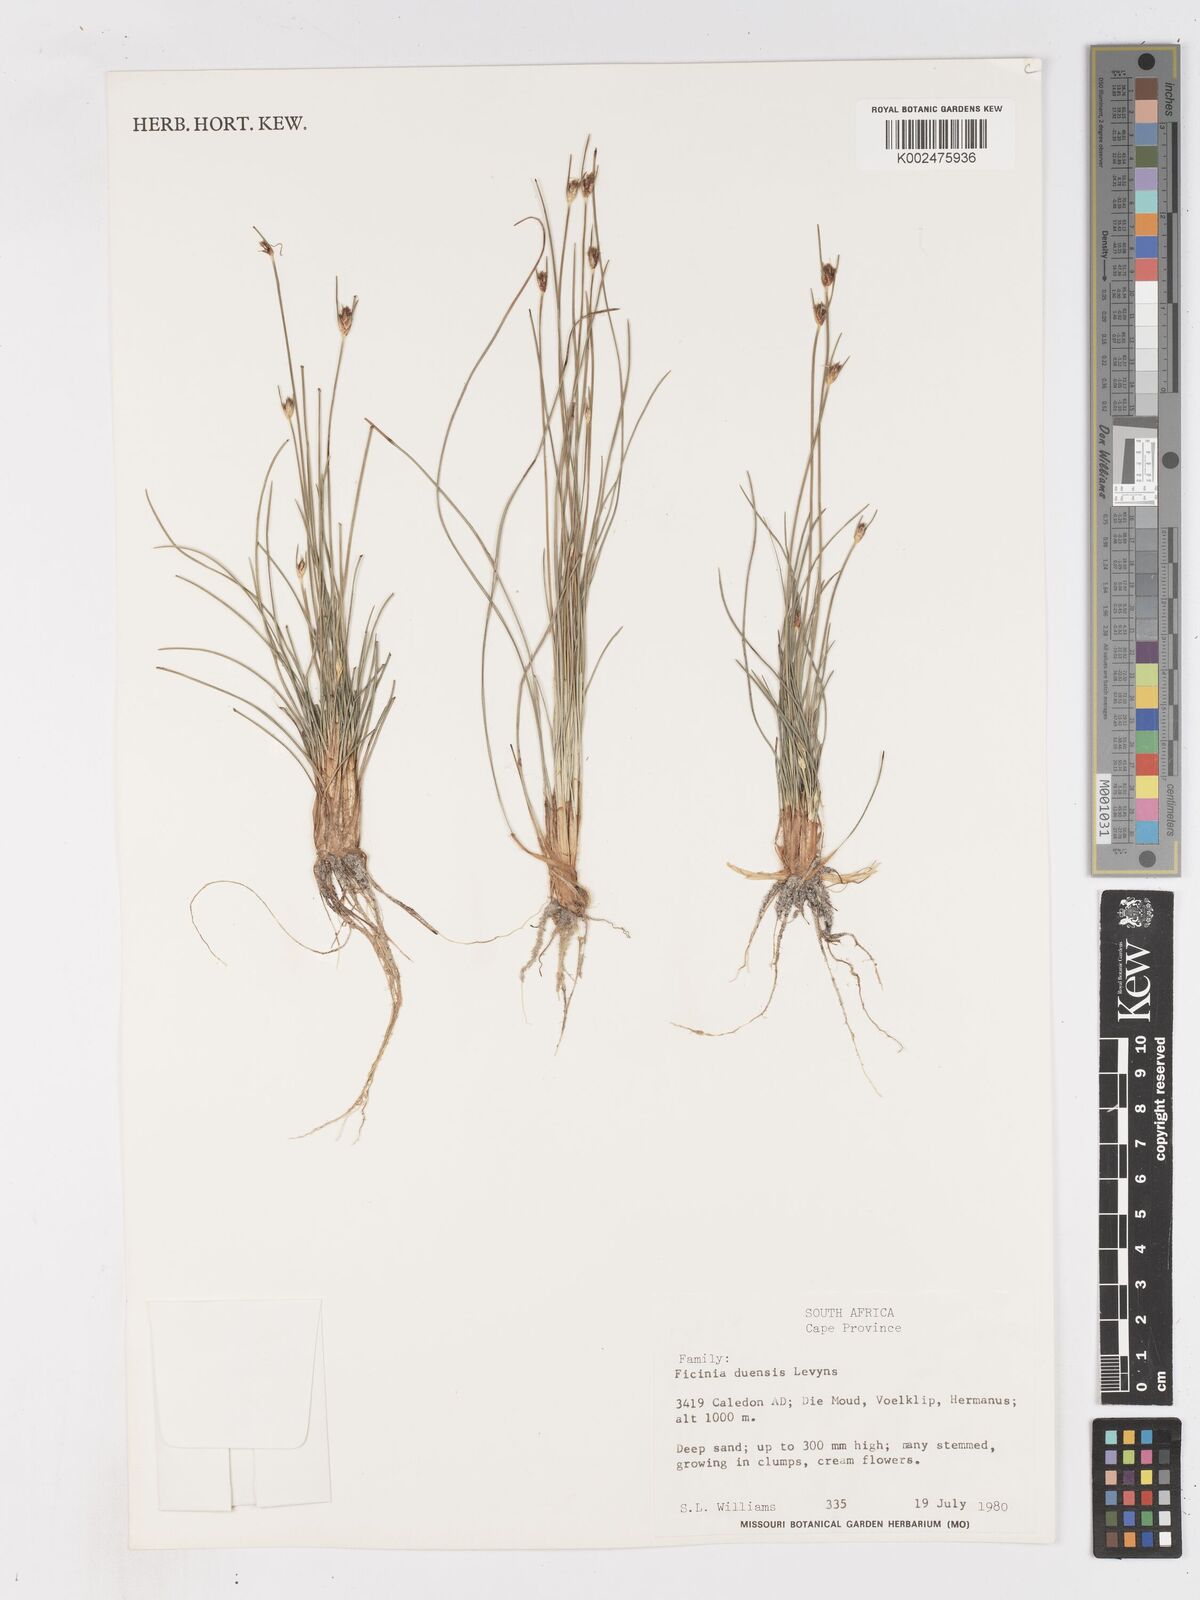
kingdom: Plantae
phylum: Tracheophyta
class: Liliopsida
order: Poales
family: Cyperaceae
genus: Ficinia
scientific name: Ficinia dunensis
